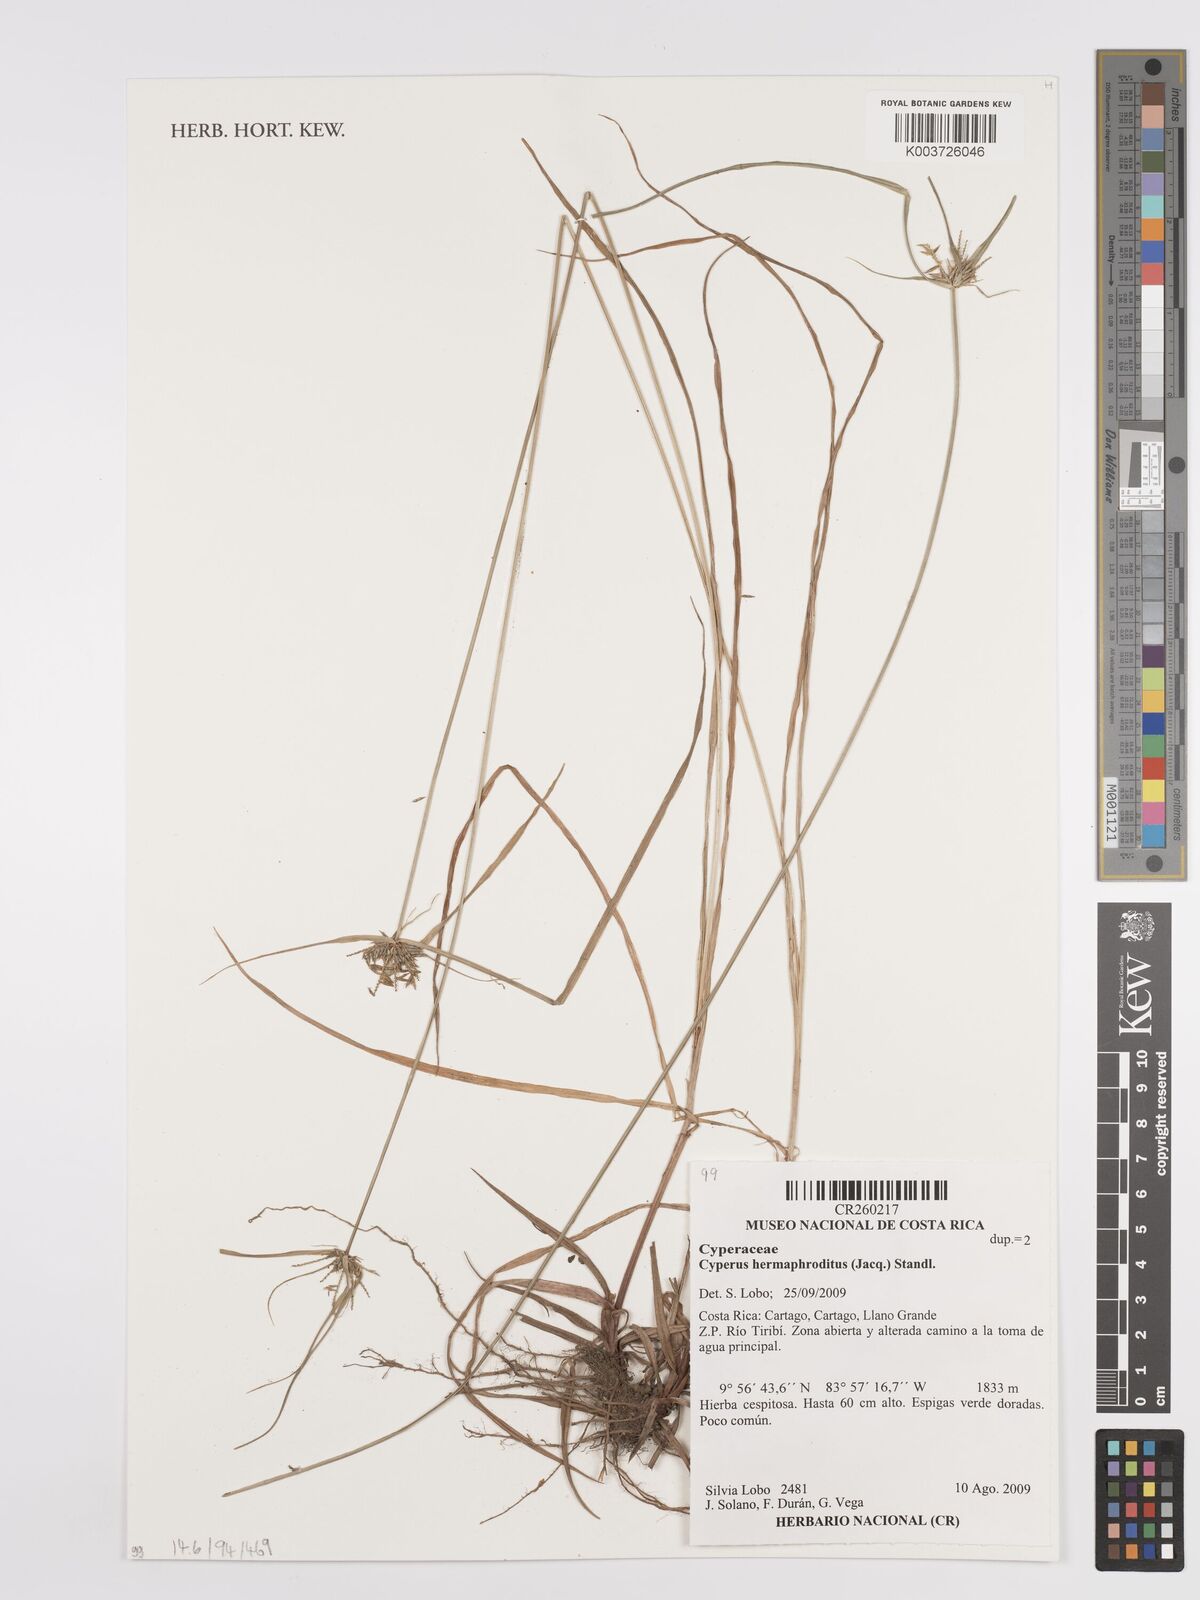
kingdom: Plantae
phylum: Tracheophyta
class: Liliopsida
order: Poales
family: Cyperaceae
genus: Cyperus
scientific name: Cyperus hermaphroditus
